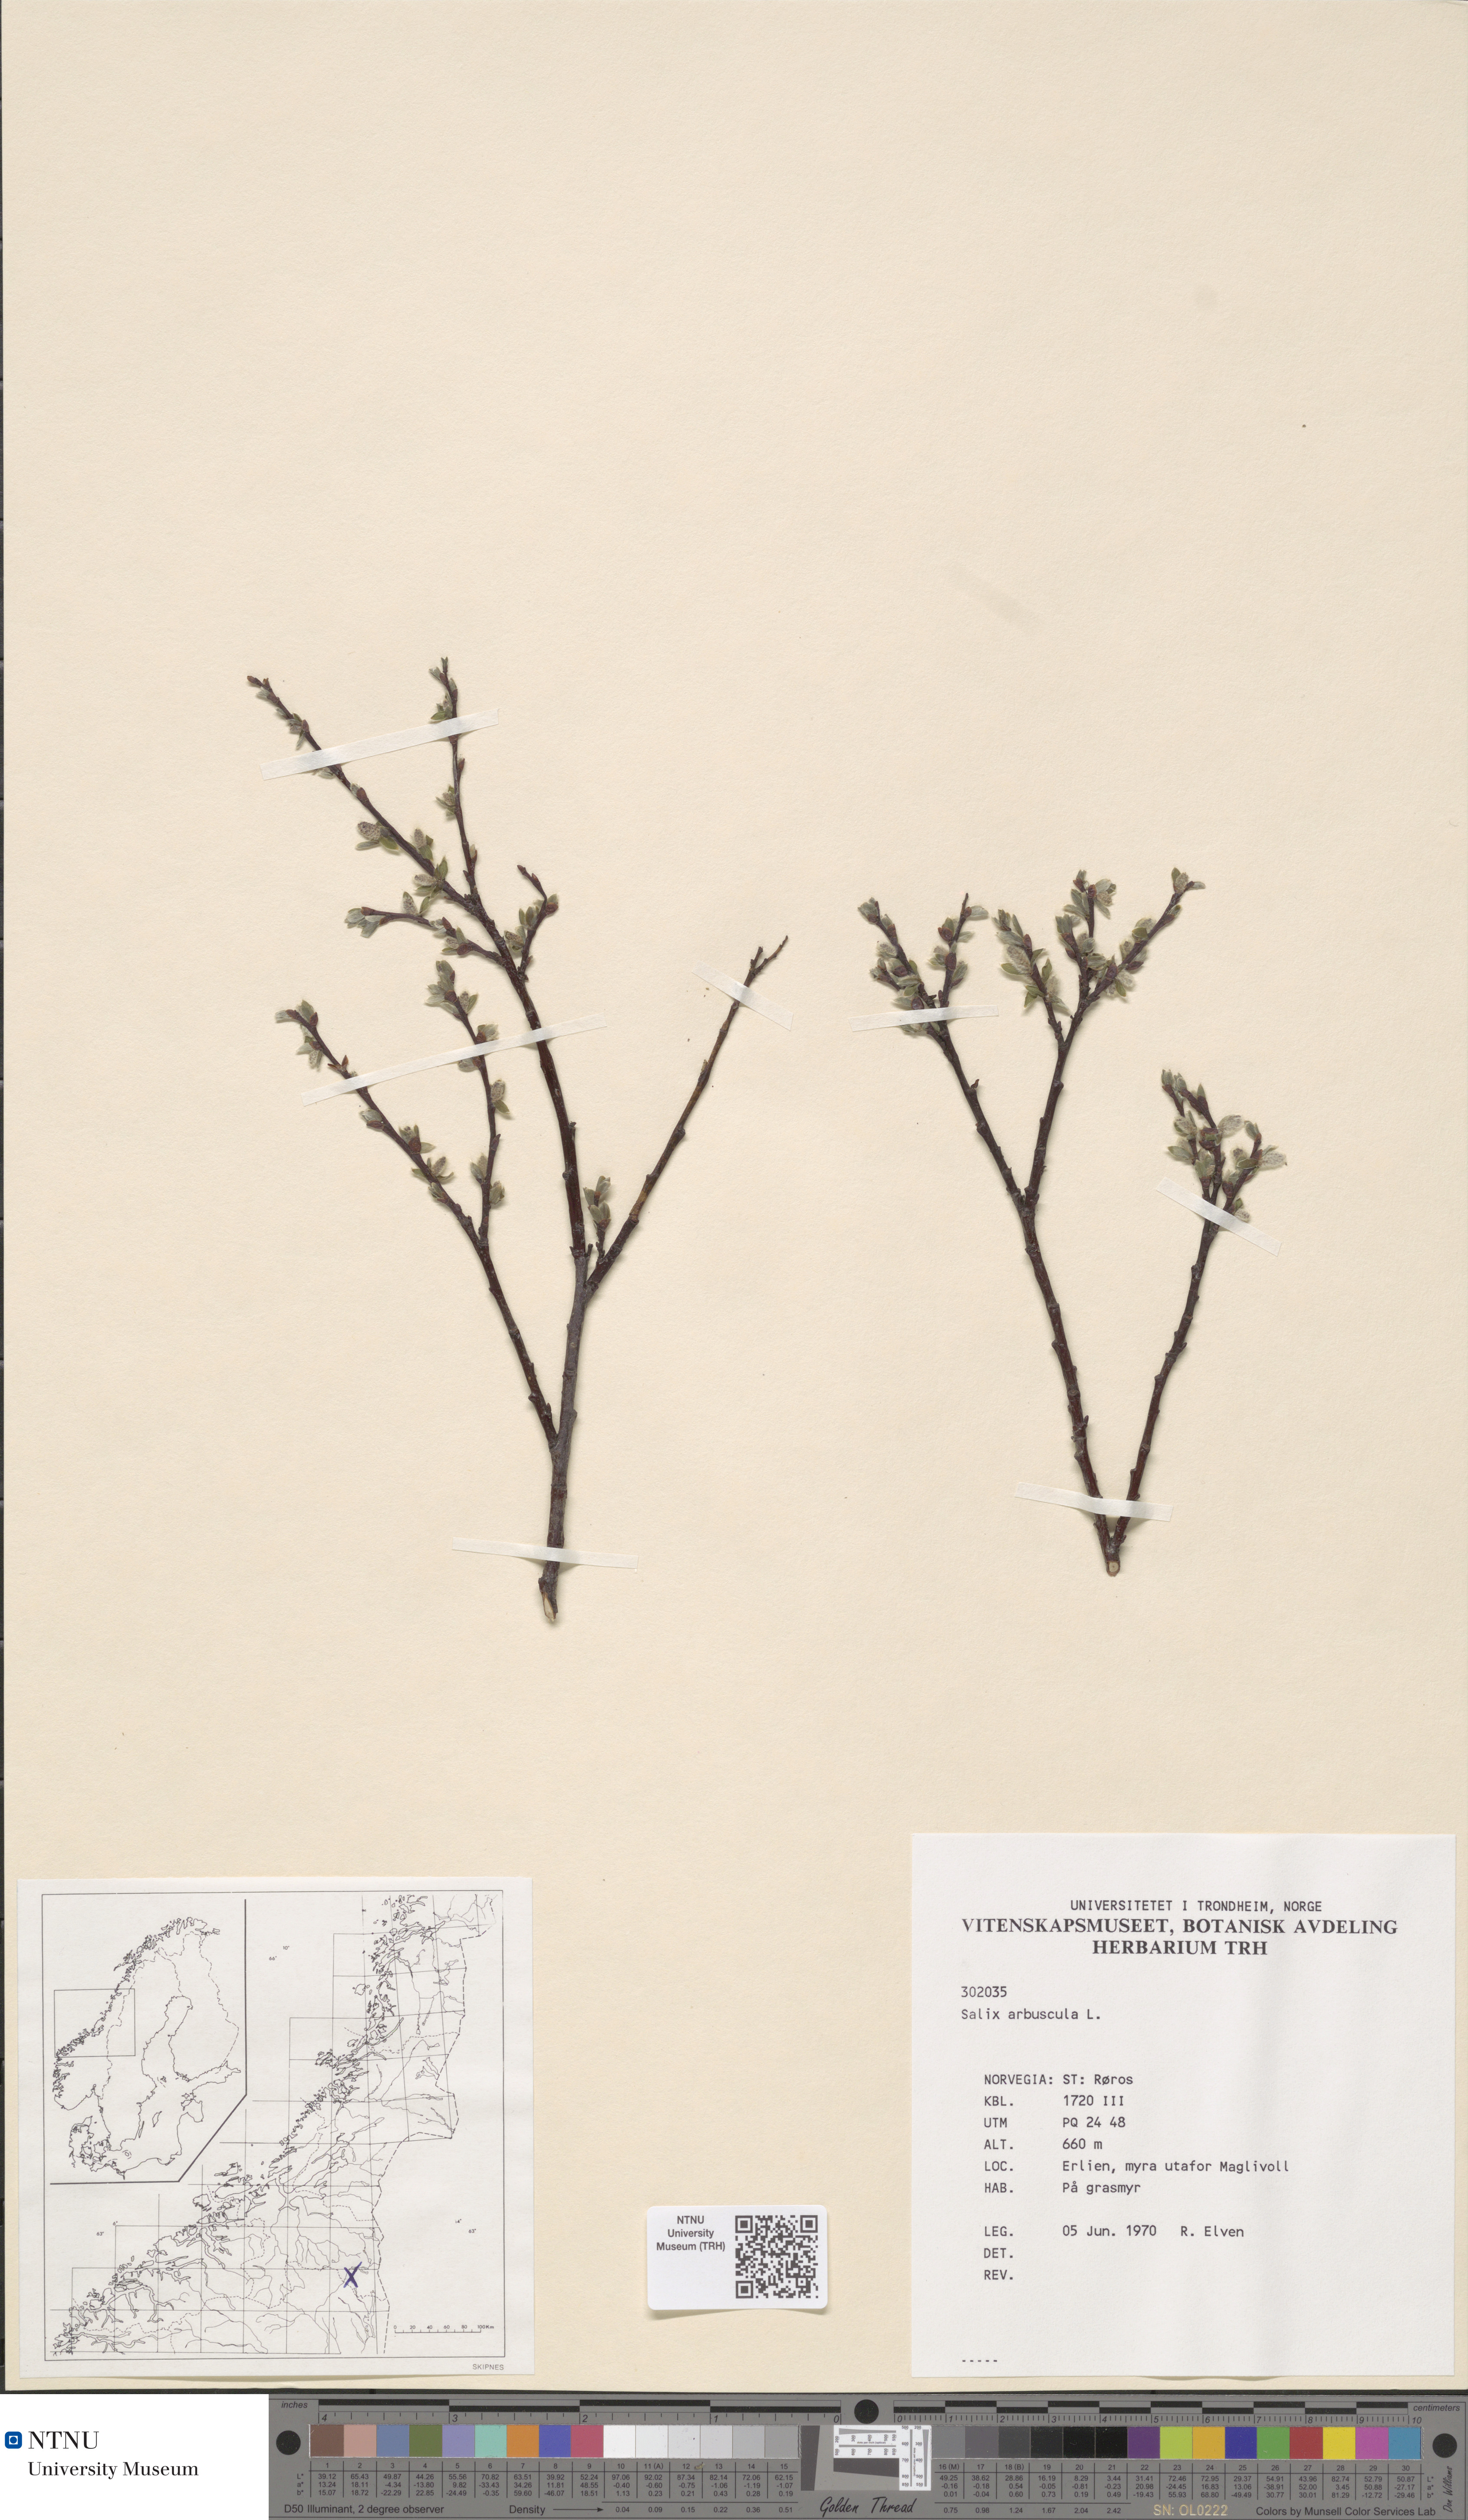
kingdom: Plantae
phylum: Tracheophyta
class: Magnoliopsida
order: Malpighiales
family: Salicaceae
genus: Salix
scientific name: Salix arbuscula
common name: Mountain willow
